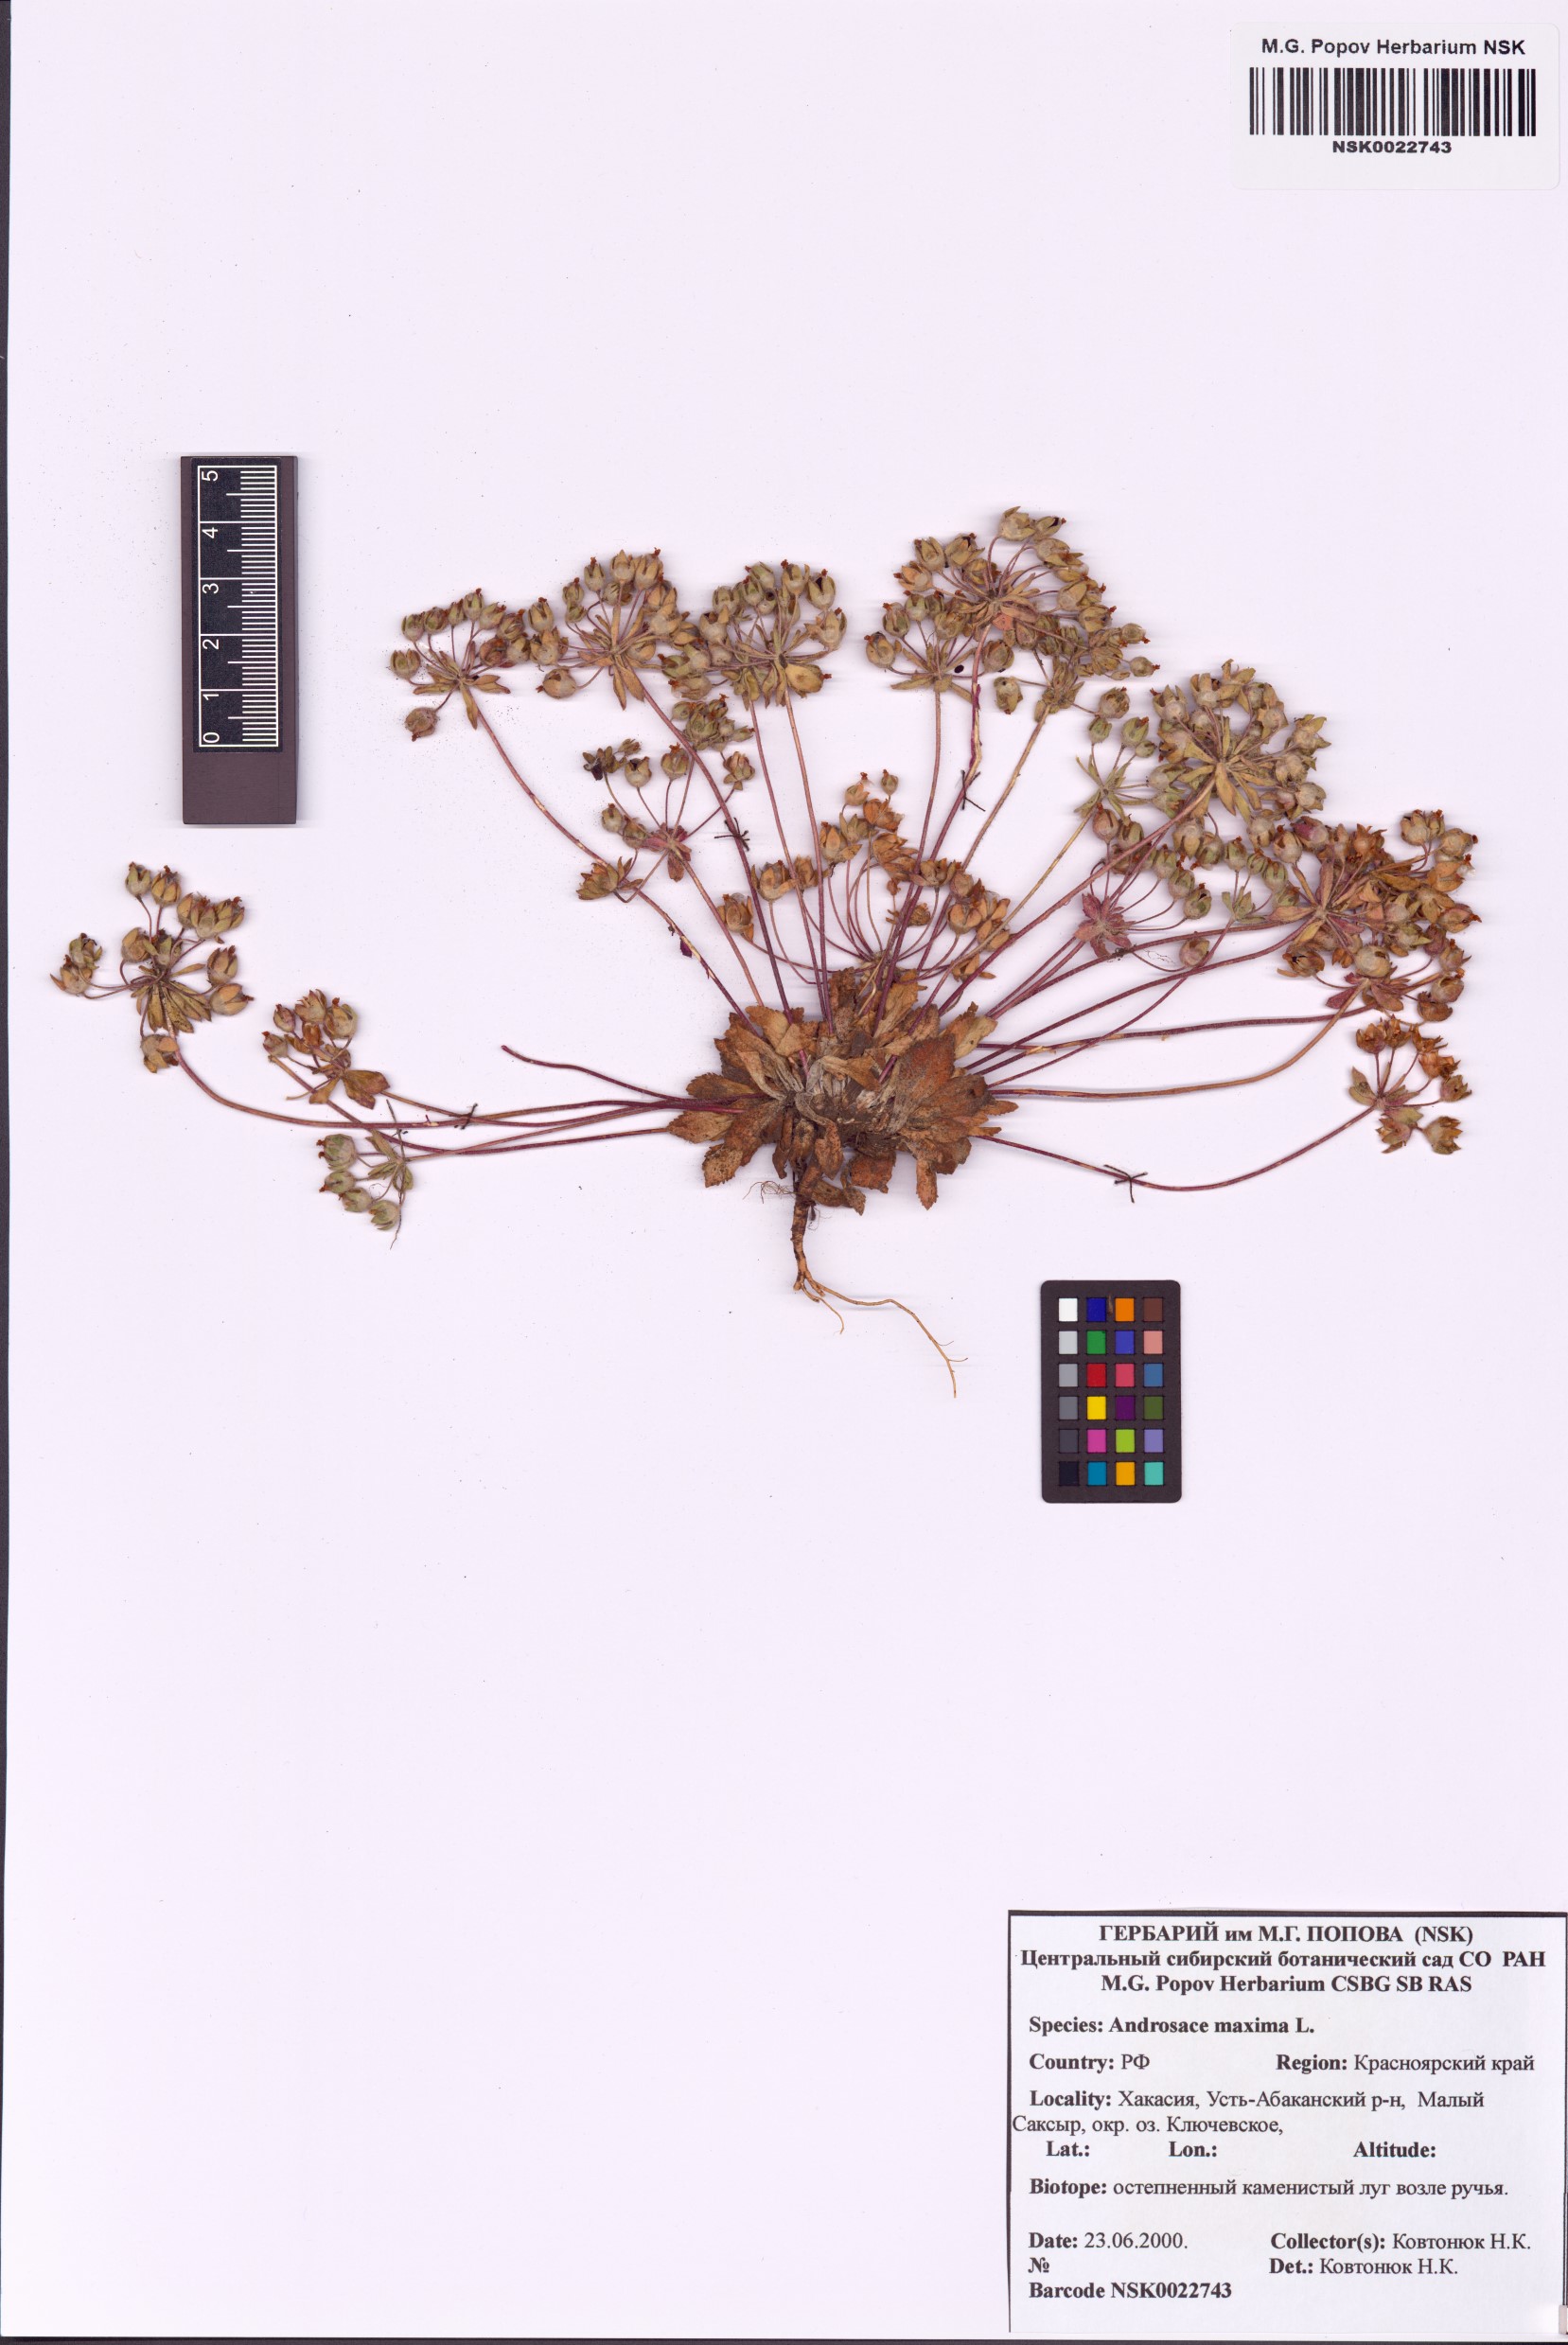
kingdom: Plantae
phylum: Tracheophyta
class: Magnoliopsida
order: Ericales
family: Primulaceae
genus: Androsace
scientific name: Androsace maxima
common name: Annual androsace
